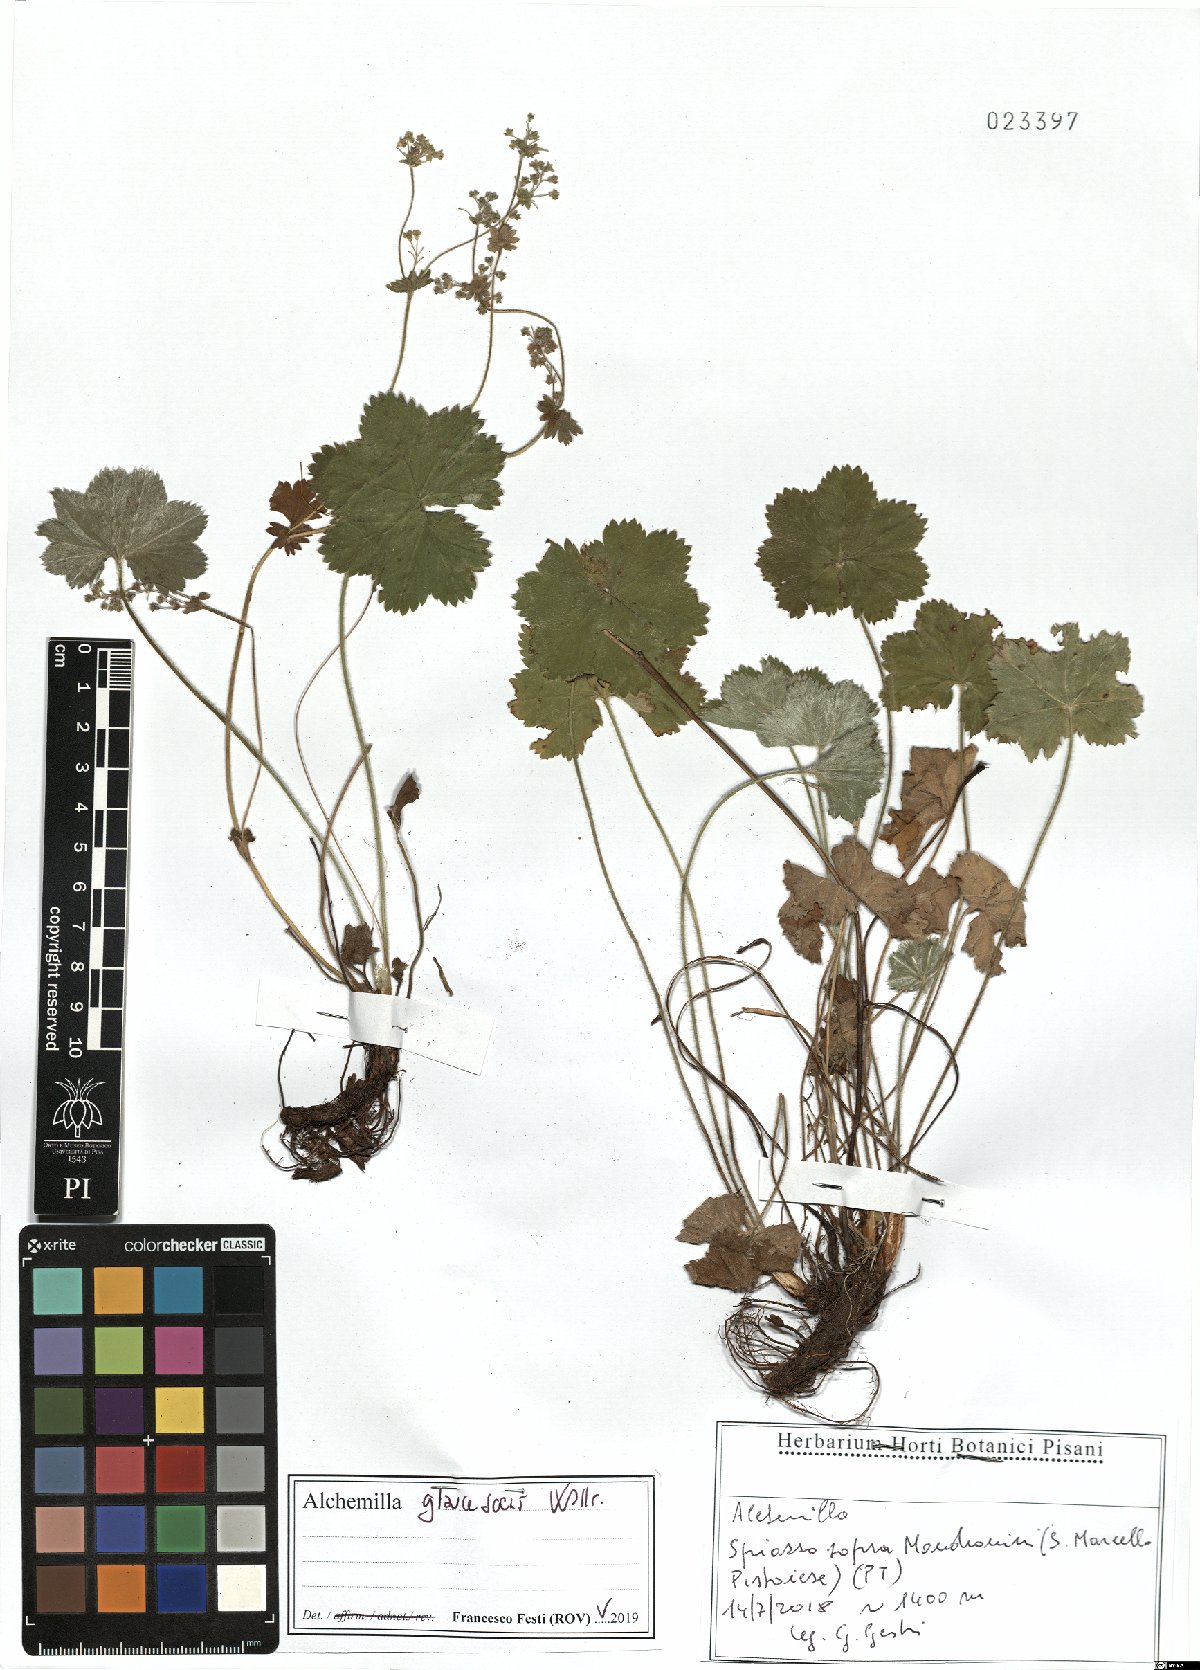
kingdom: Plantae
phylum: Tracheophyta
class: Magnoliopsida
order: Rosales
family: Rosaceae
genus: Alchemilla
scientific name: Alchemilla glaucescens
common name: Silky lady's mantle
